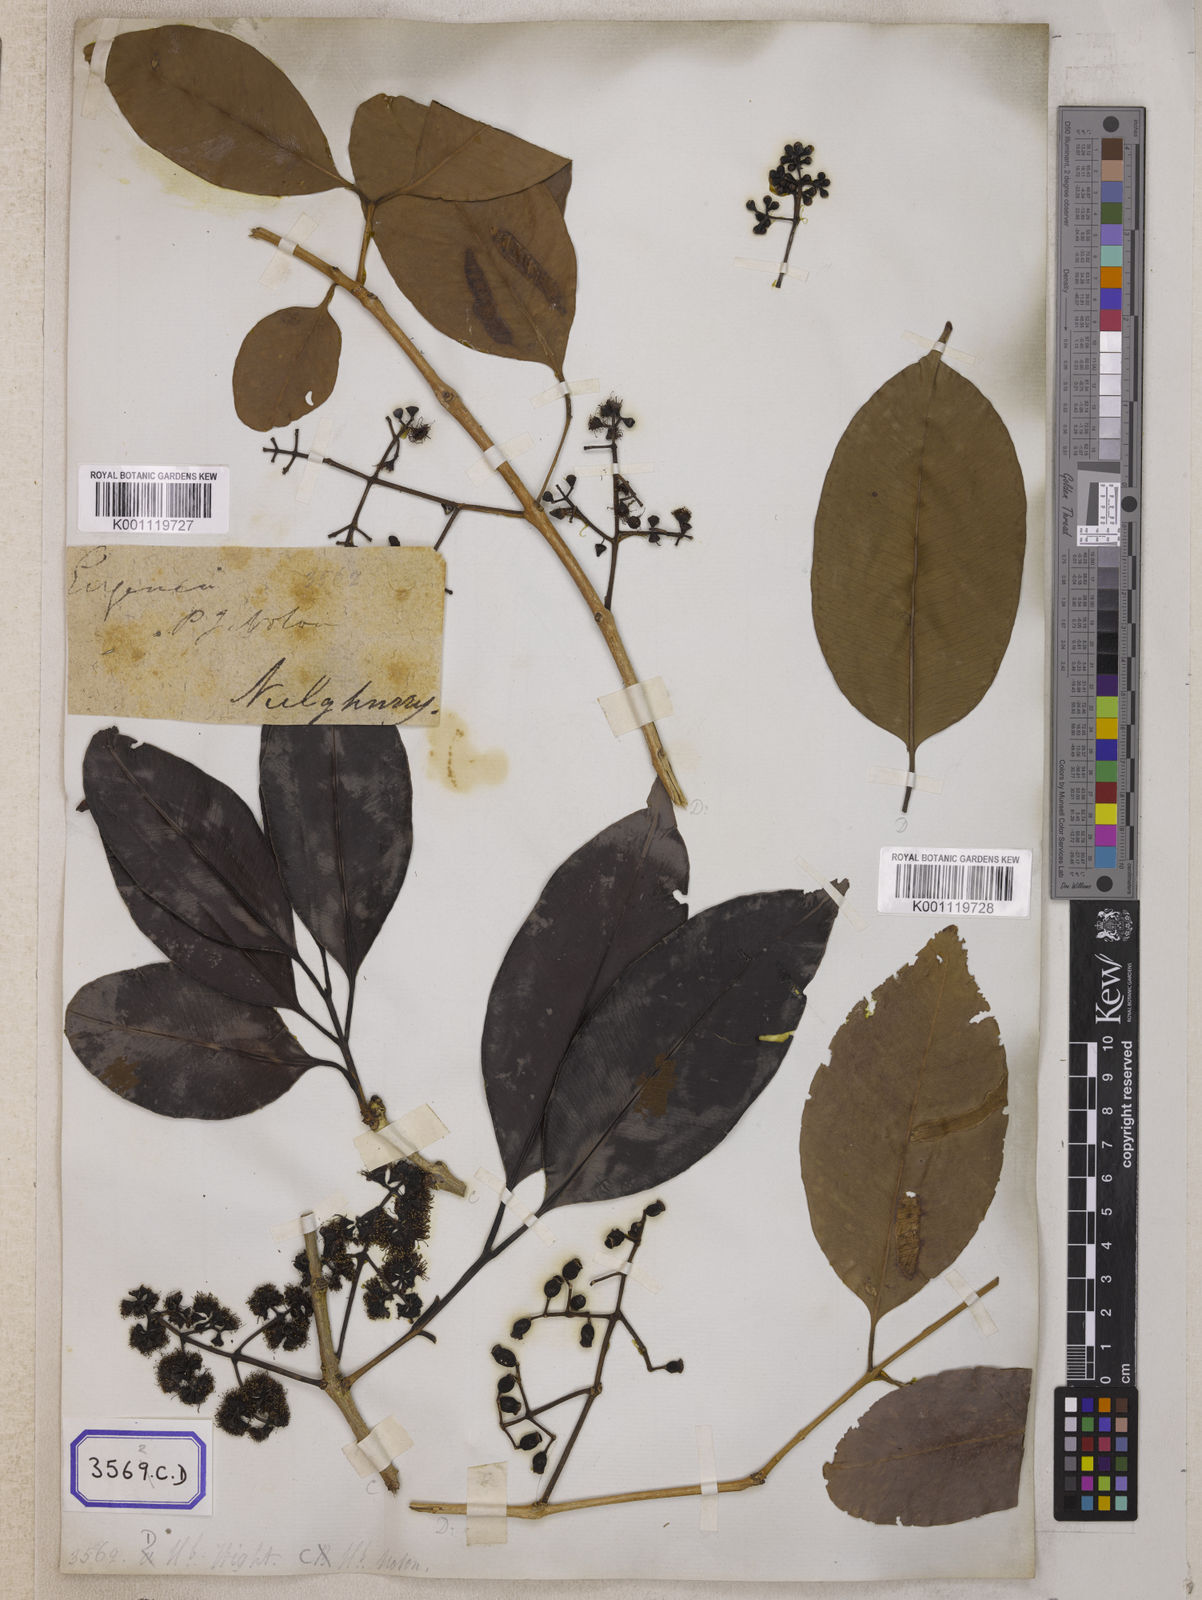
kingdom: Plantae
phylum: Tracheophyta
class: Magnoliopsida
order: Myrtales
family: Myrtaceae
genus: Syzygium
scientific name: Syzygium cumini
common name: Java plum
